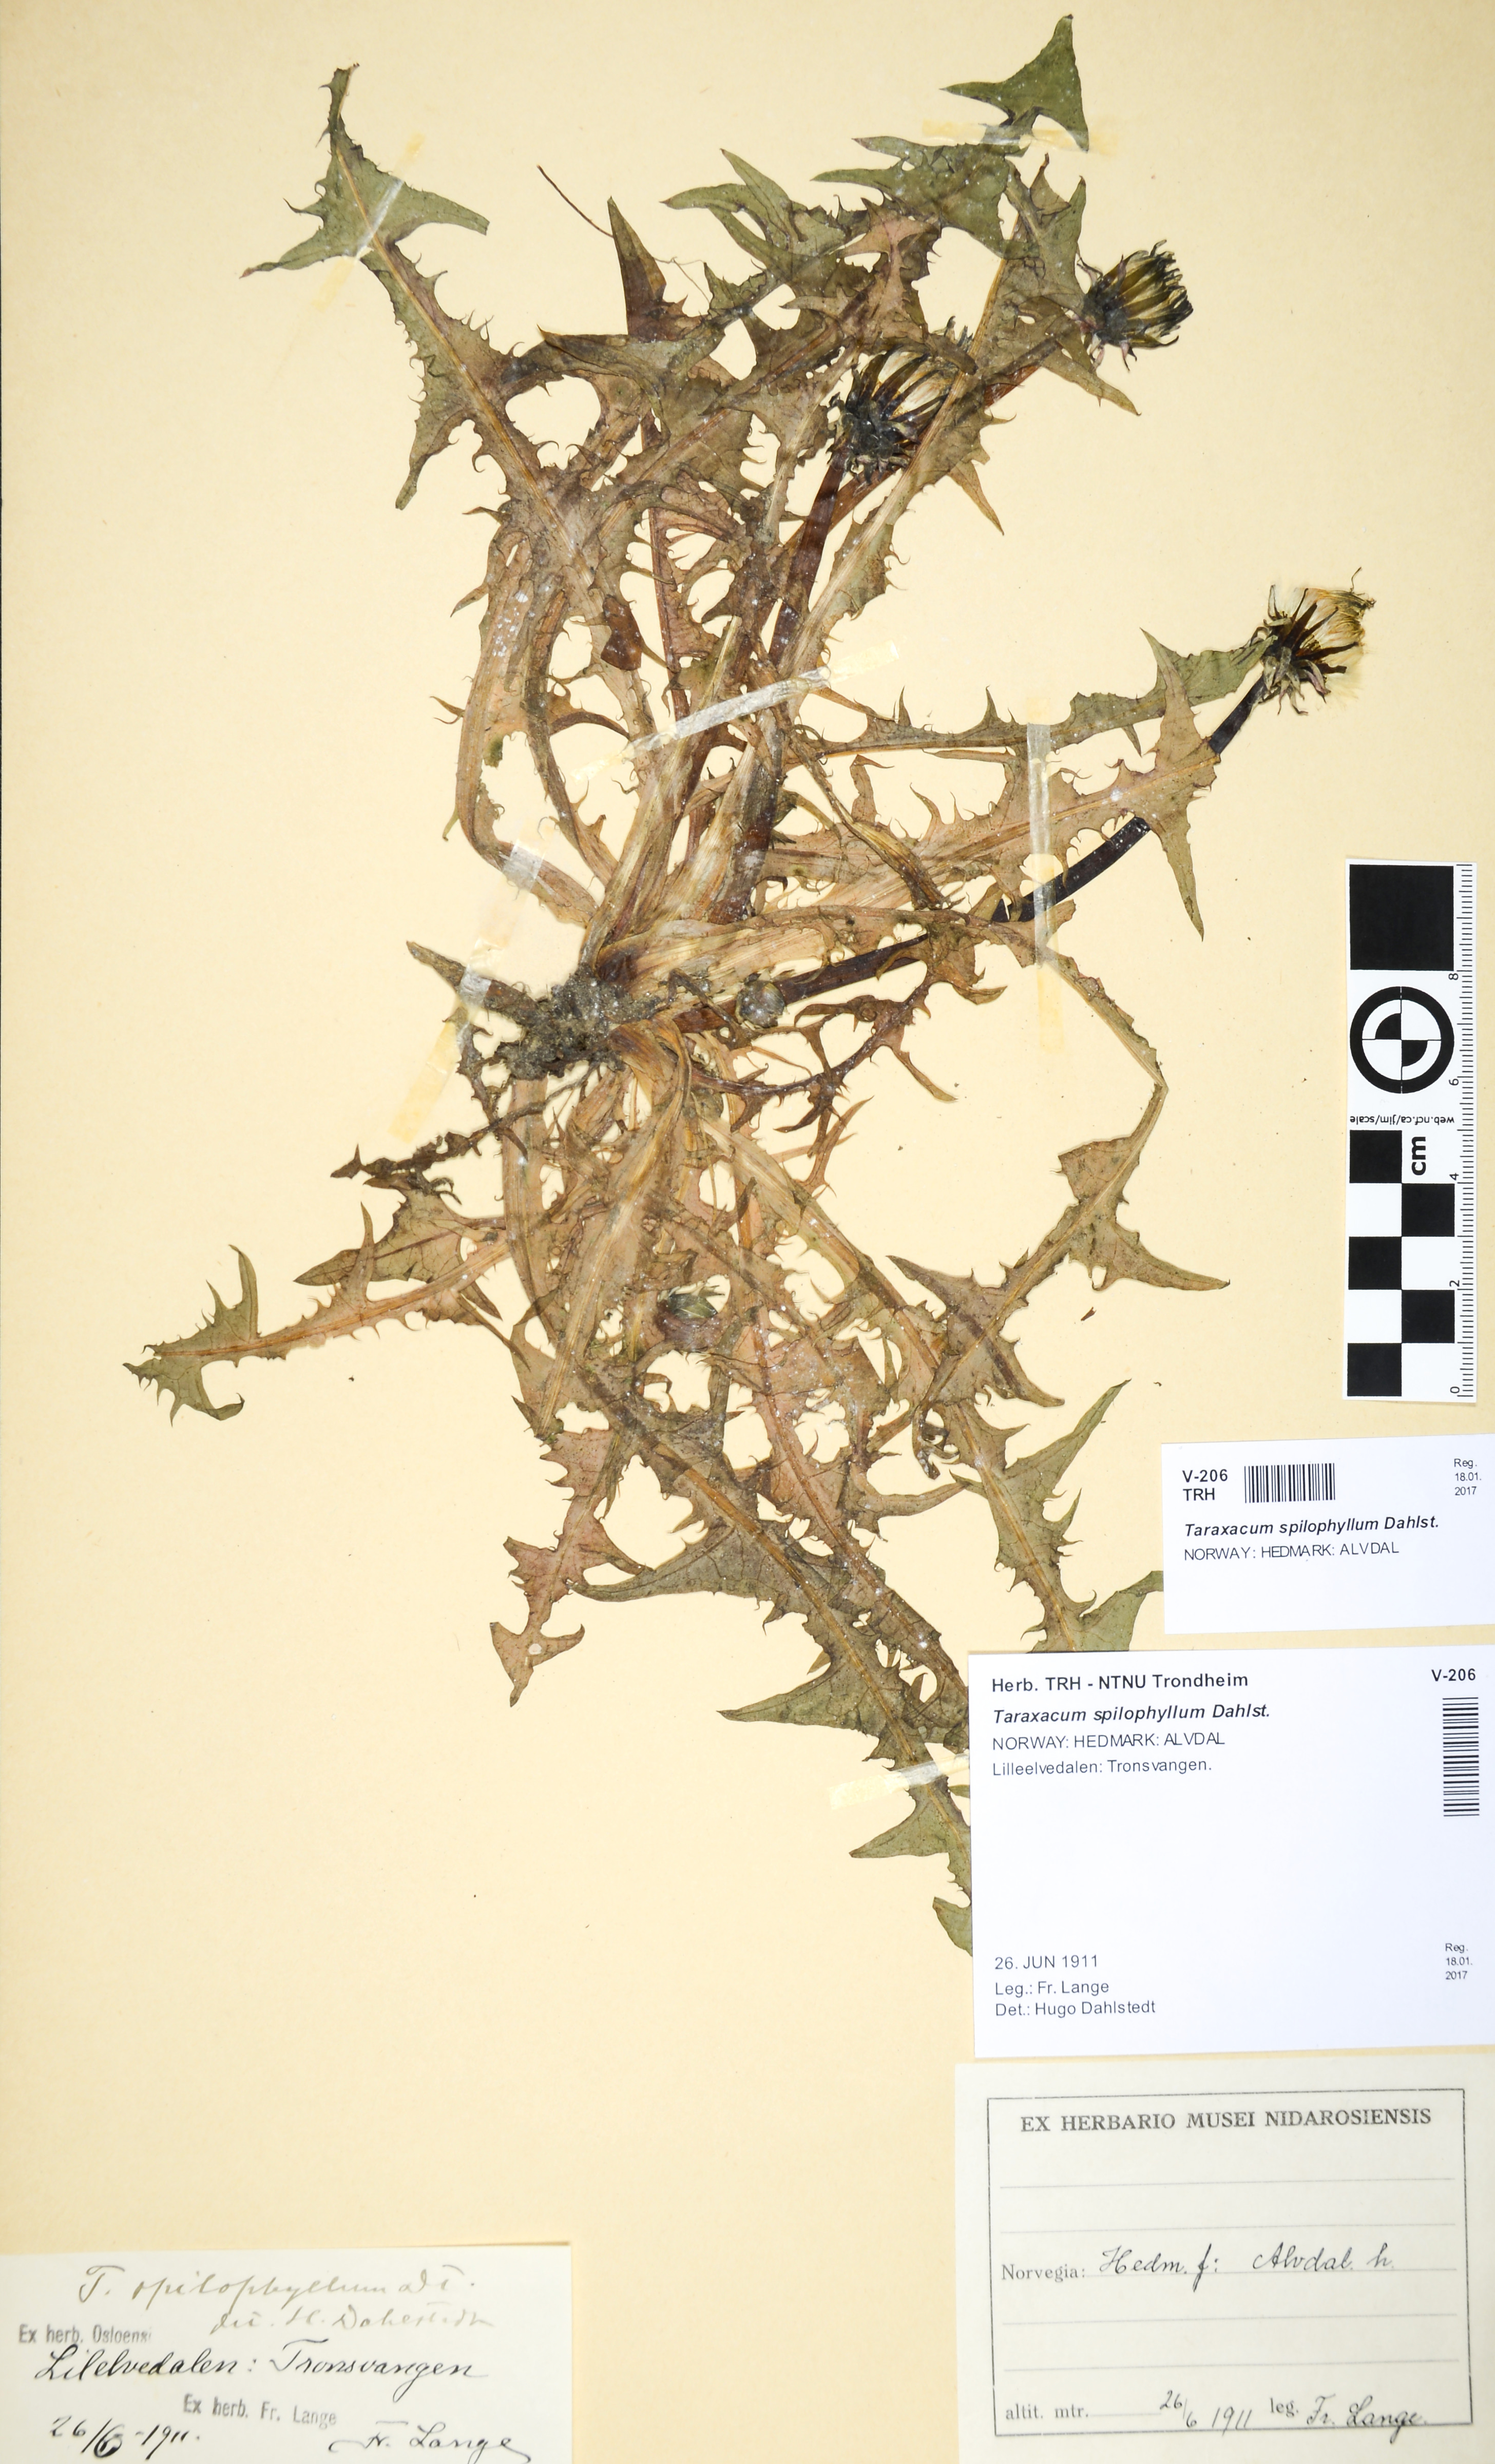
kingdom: Plantae
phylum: Tracheophyta
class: Magnoliopsida
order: Asterales
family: Asteraceae
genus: Taraxacum
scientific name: Taraxacum spilophyllum
